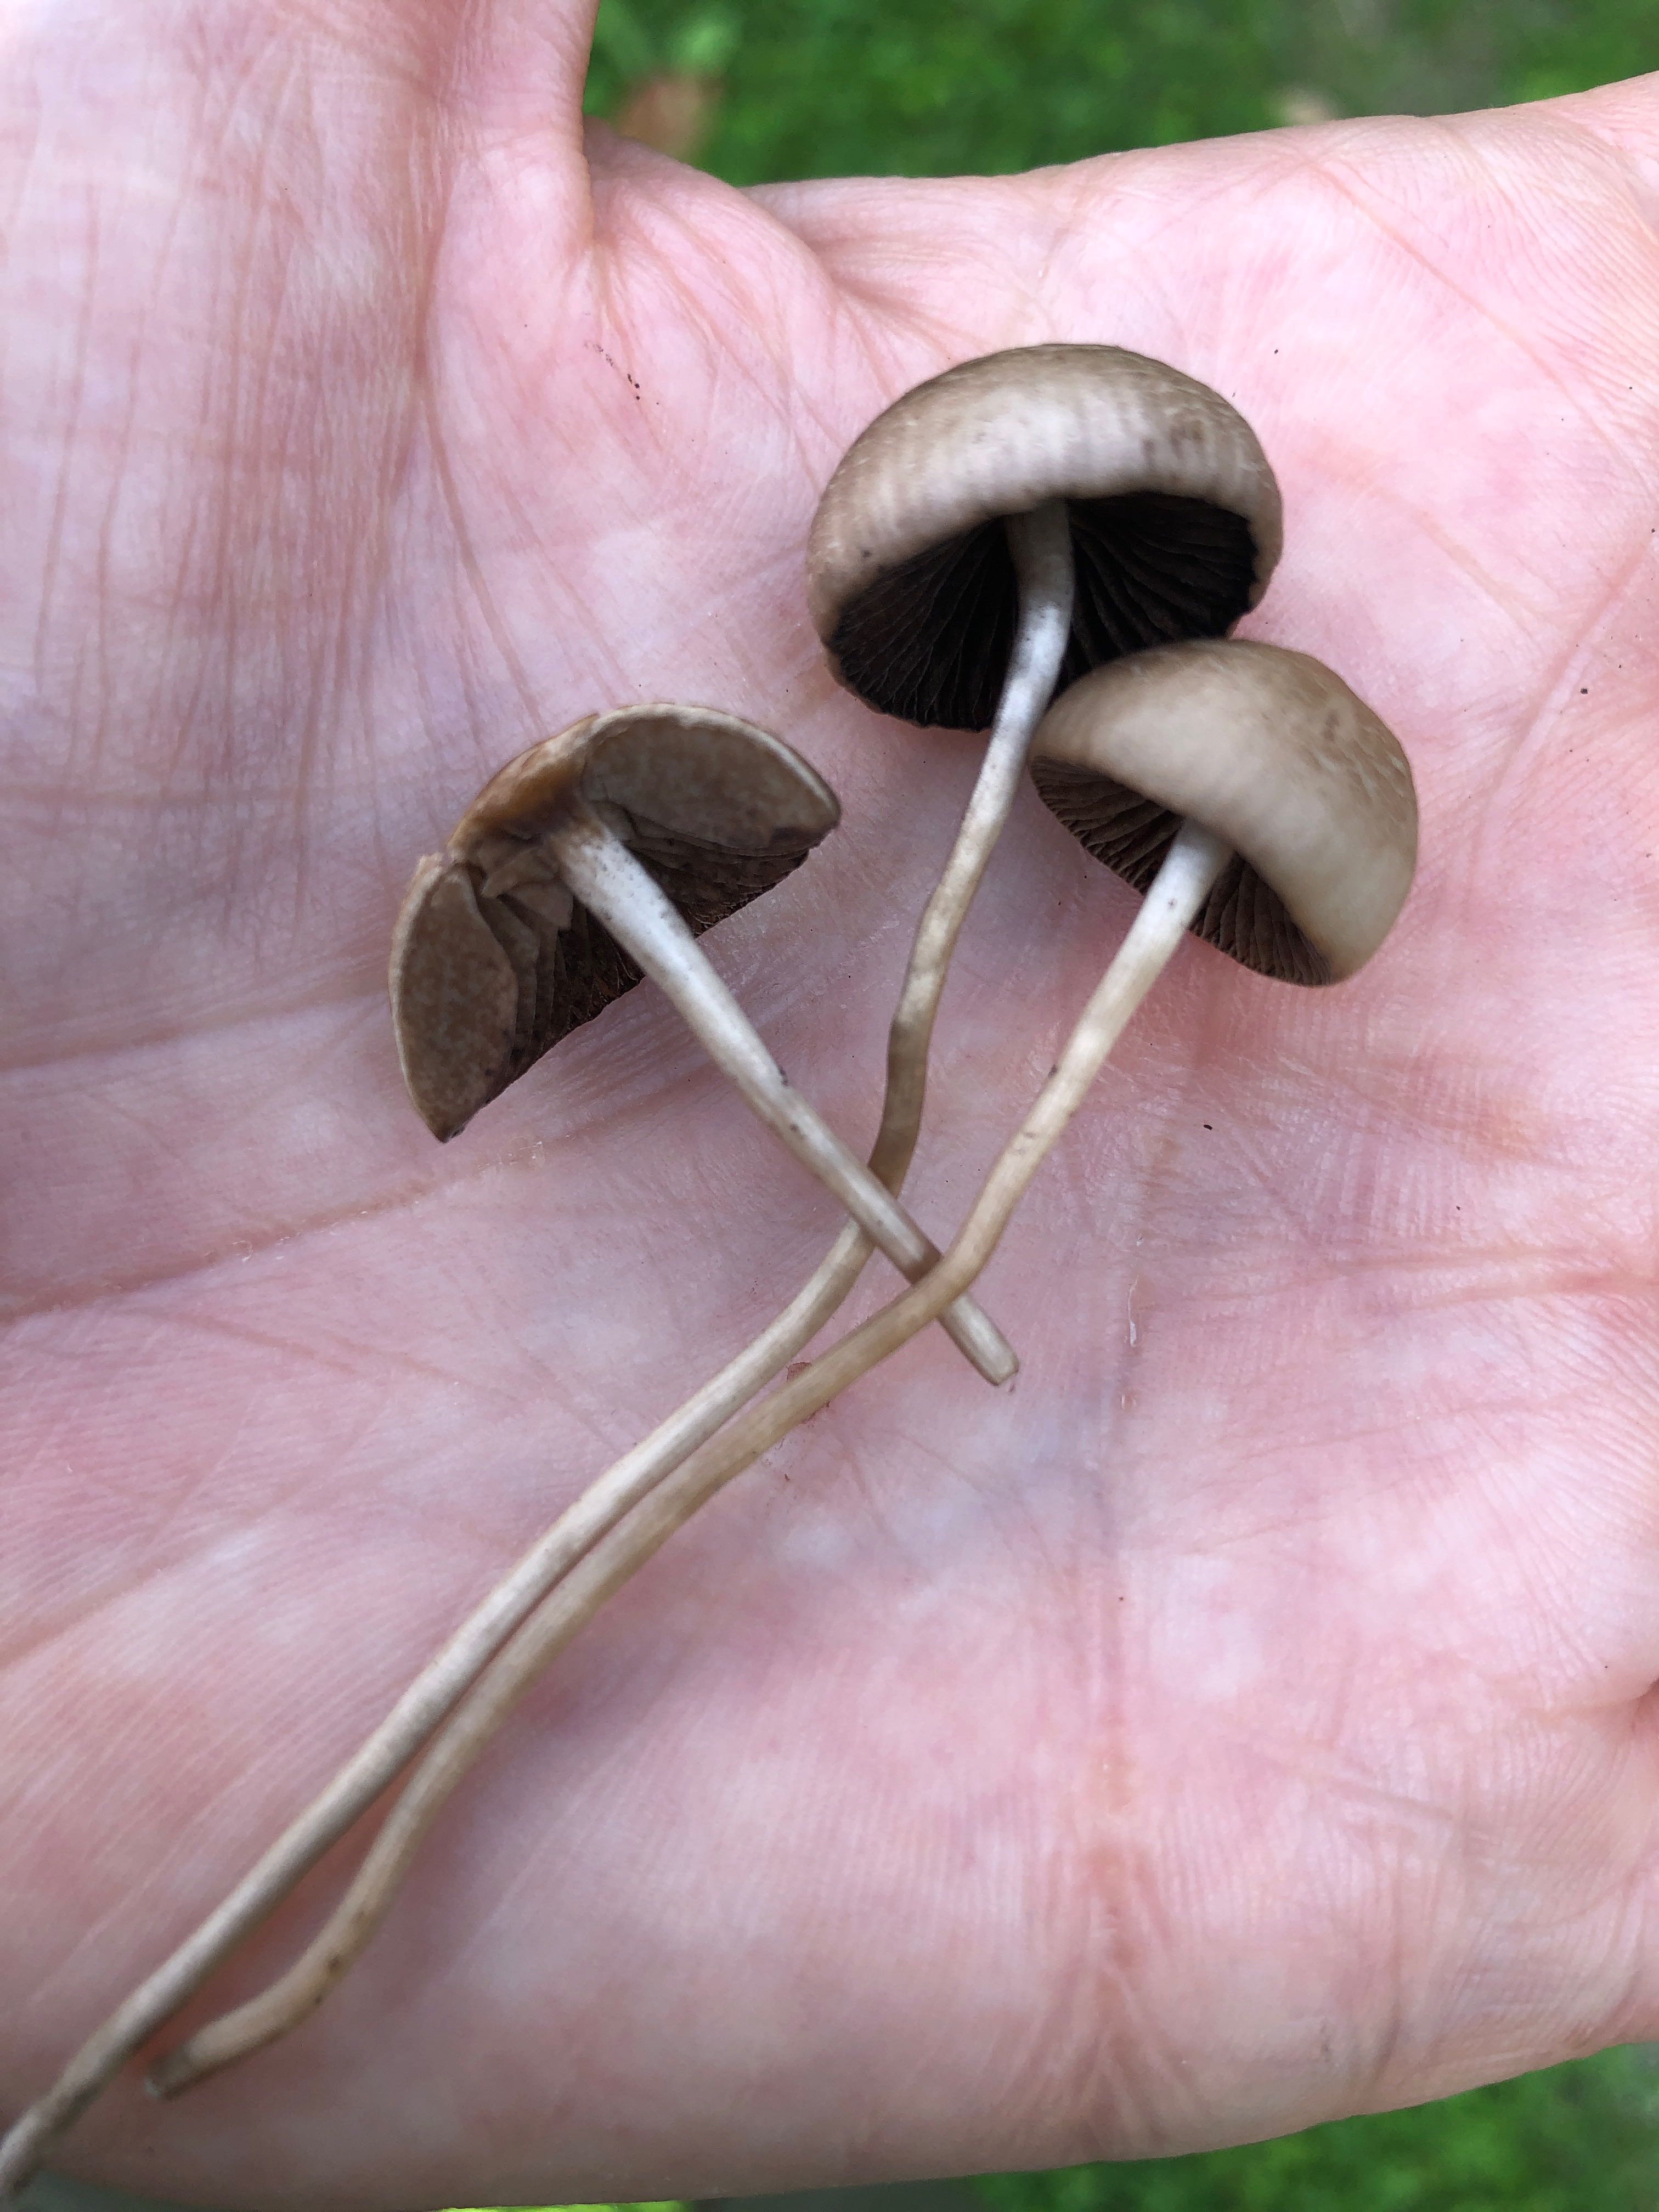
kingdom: Fungi
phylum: Basidiomycota
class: Agaricomycetes
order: Agaricales
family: Bolbitiaceae
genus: Panaeolina
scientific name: Panaeolina foenisecii
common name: høslætsvamp
